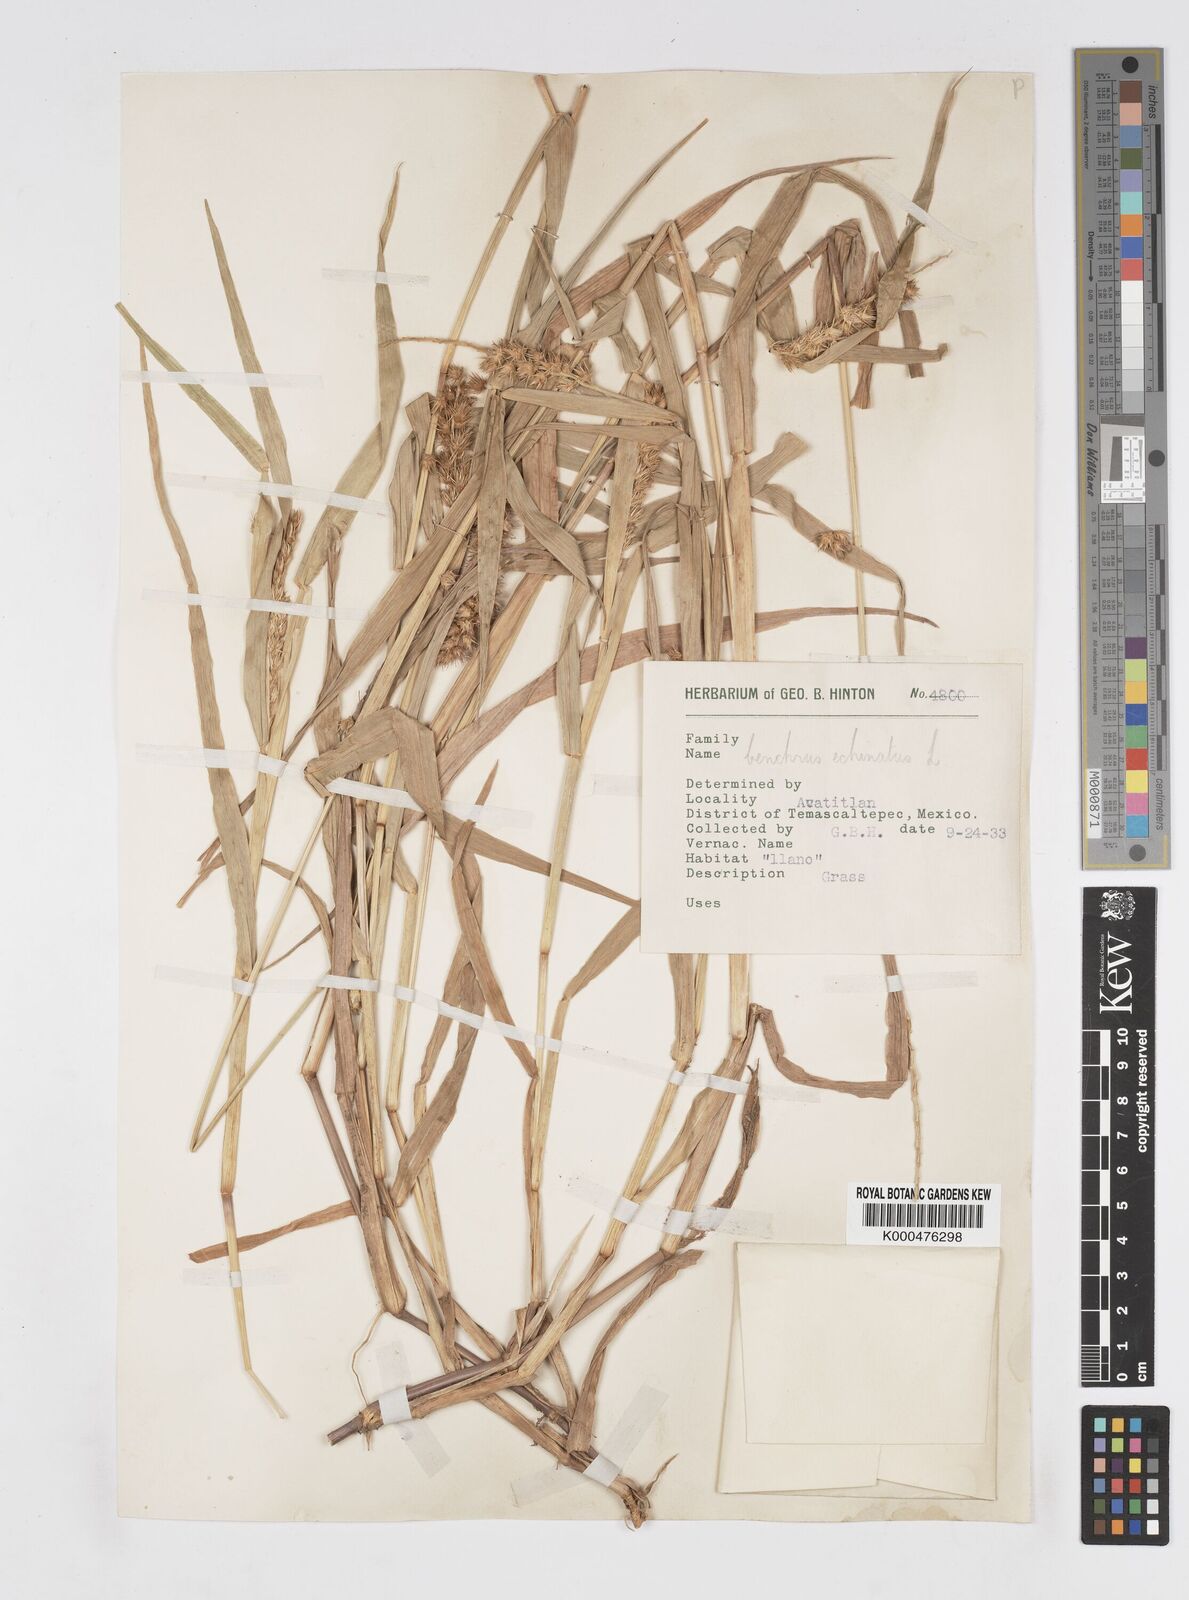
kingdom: Plantae
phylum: Tracheophyta
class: Liliopsida
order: Poales
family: Poaceae
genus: Cenchrus
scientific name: Cenchrus echinatus
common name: Southern sandbur
